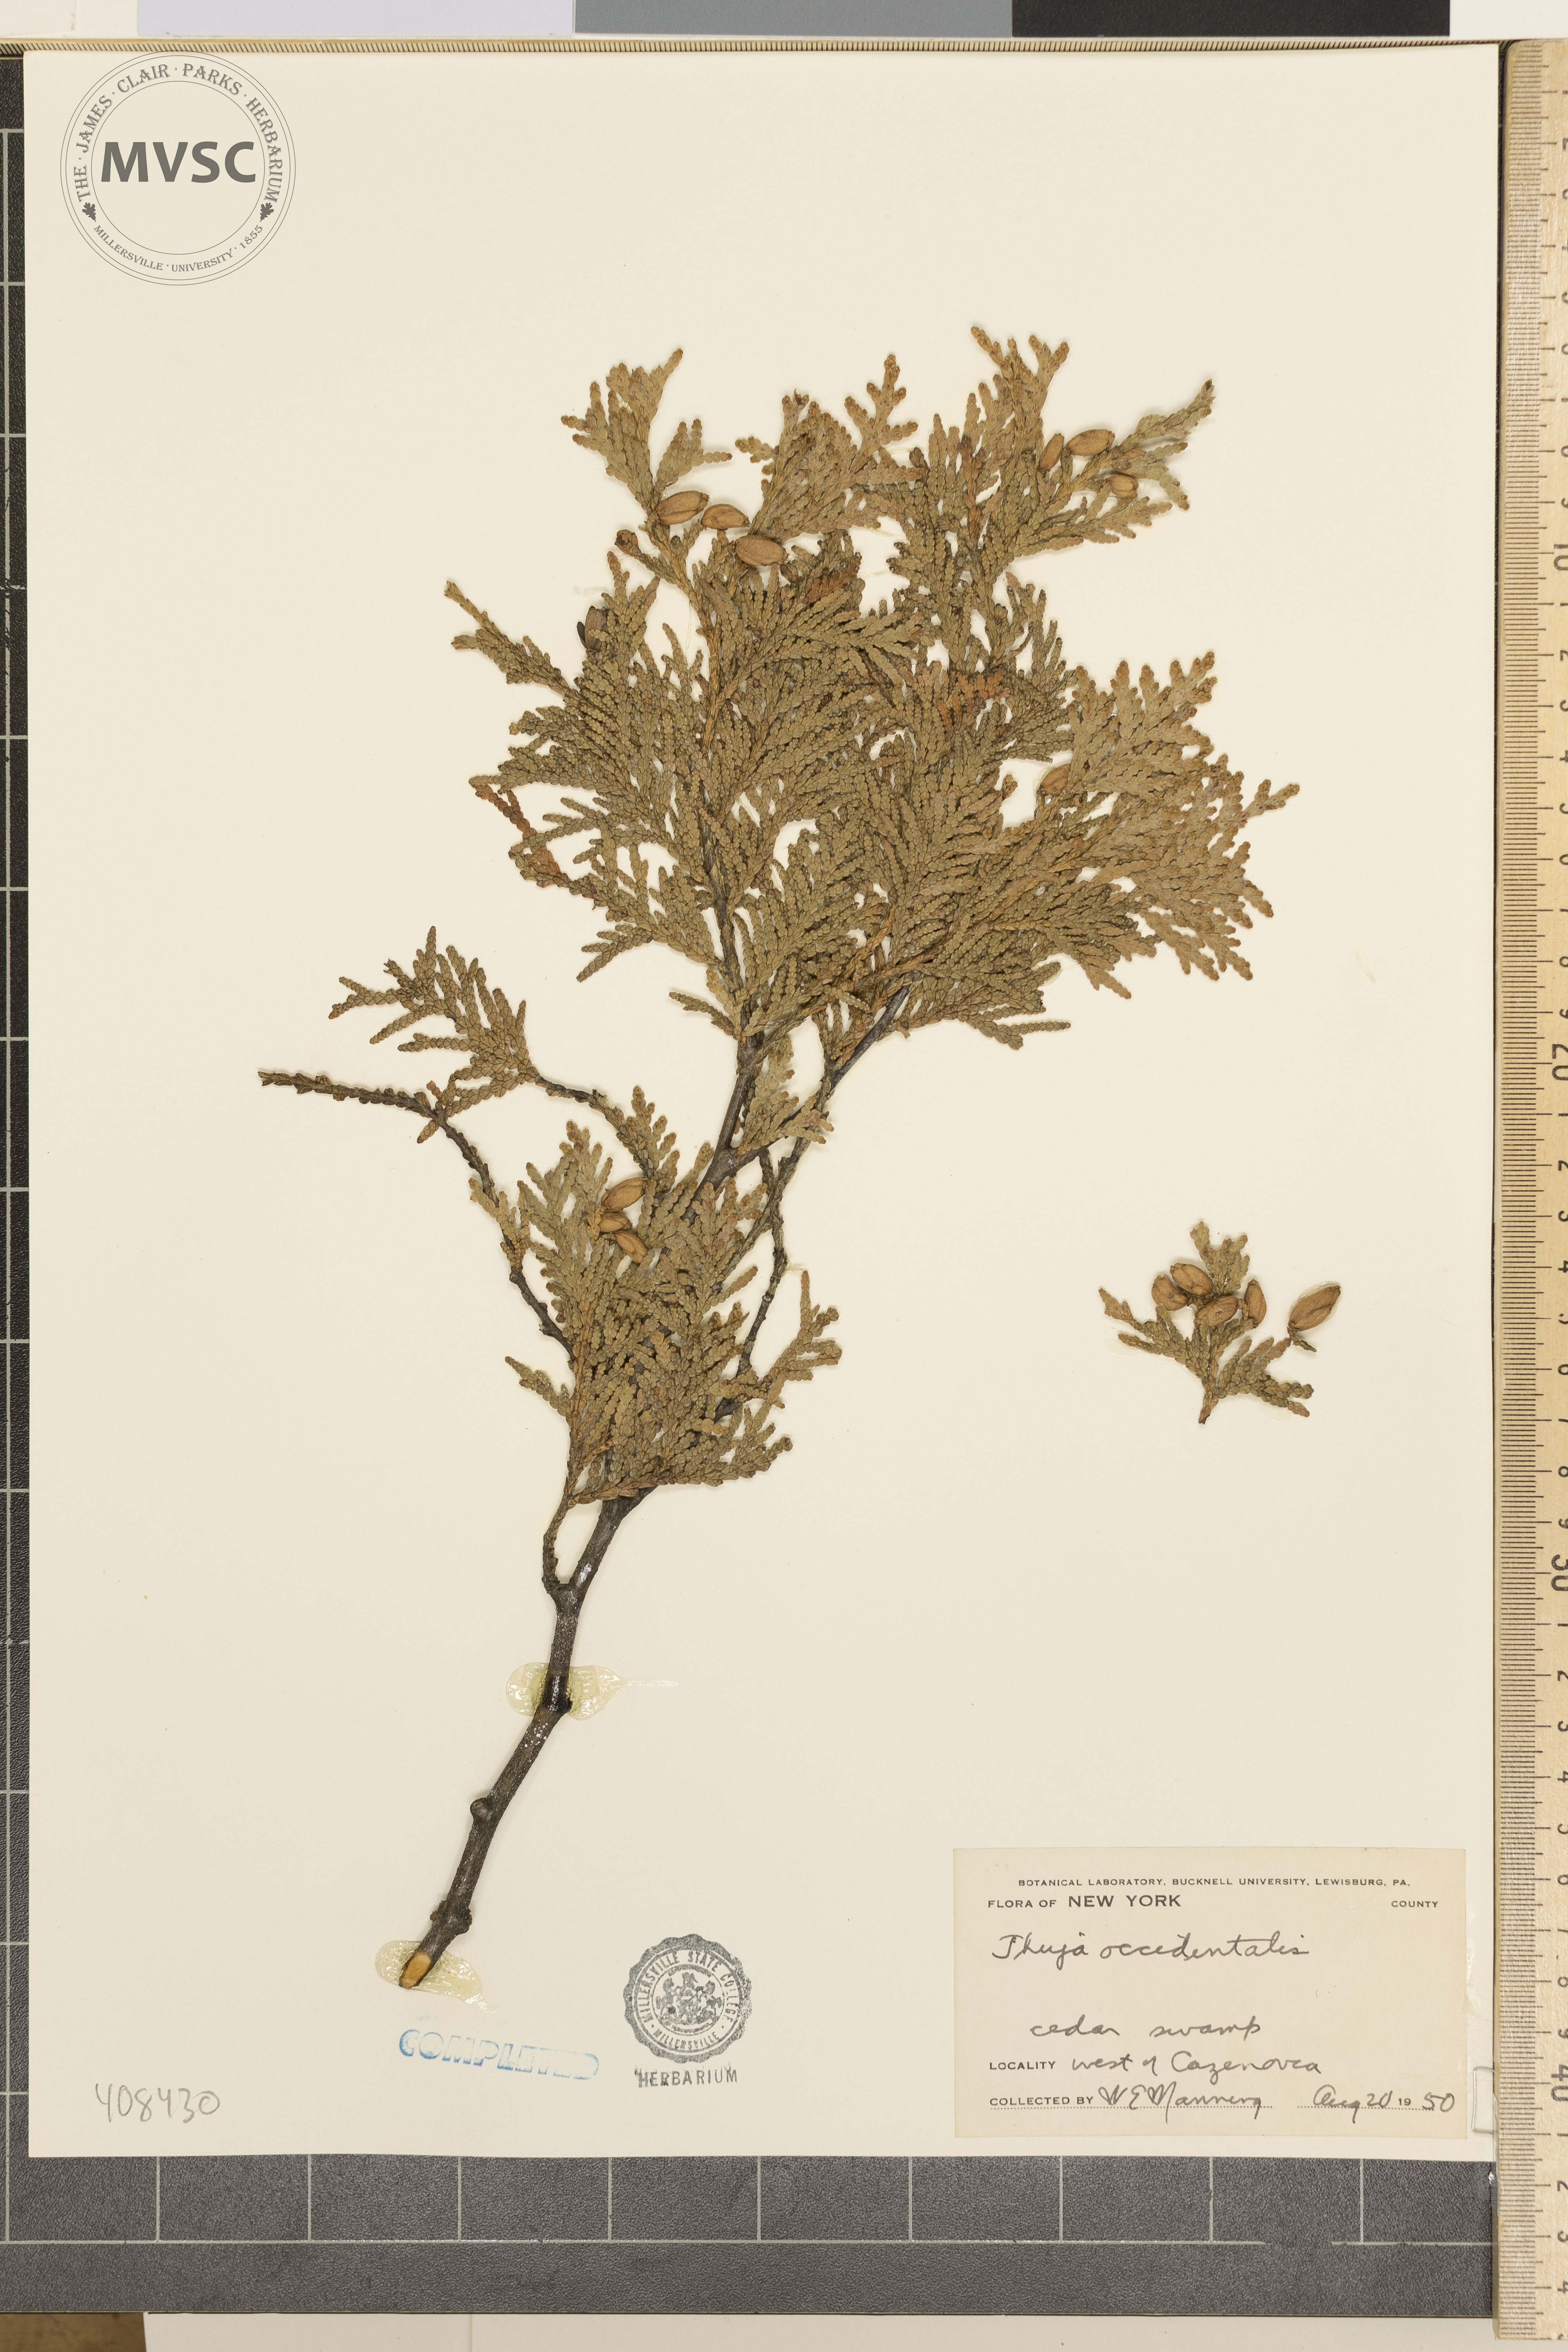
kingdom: Plantae
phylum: Tracheophyta
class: Pinopsida
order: Pinales
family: Cupressaceae
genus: Thuja
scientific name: Thuja occidentalis
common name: Northern white-cedar
